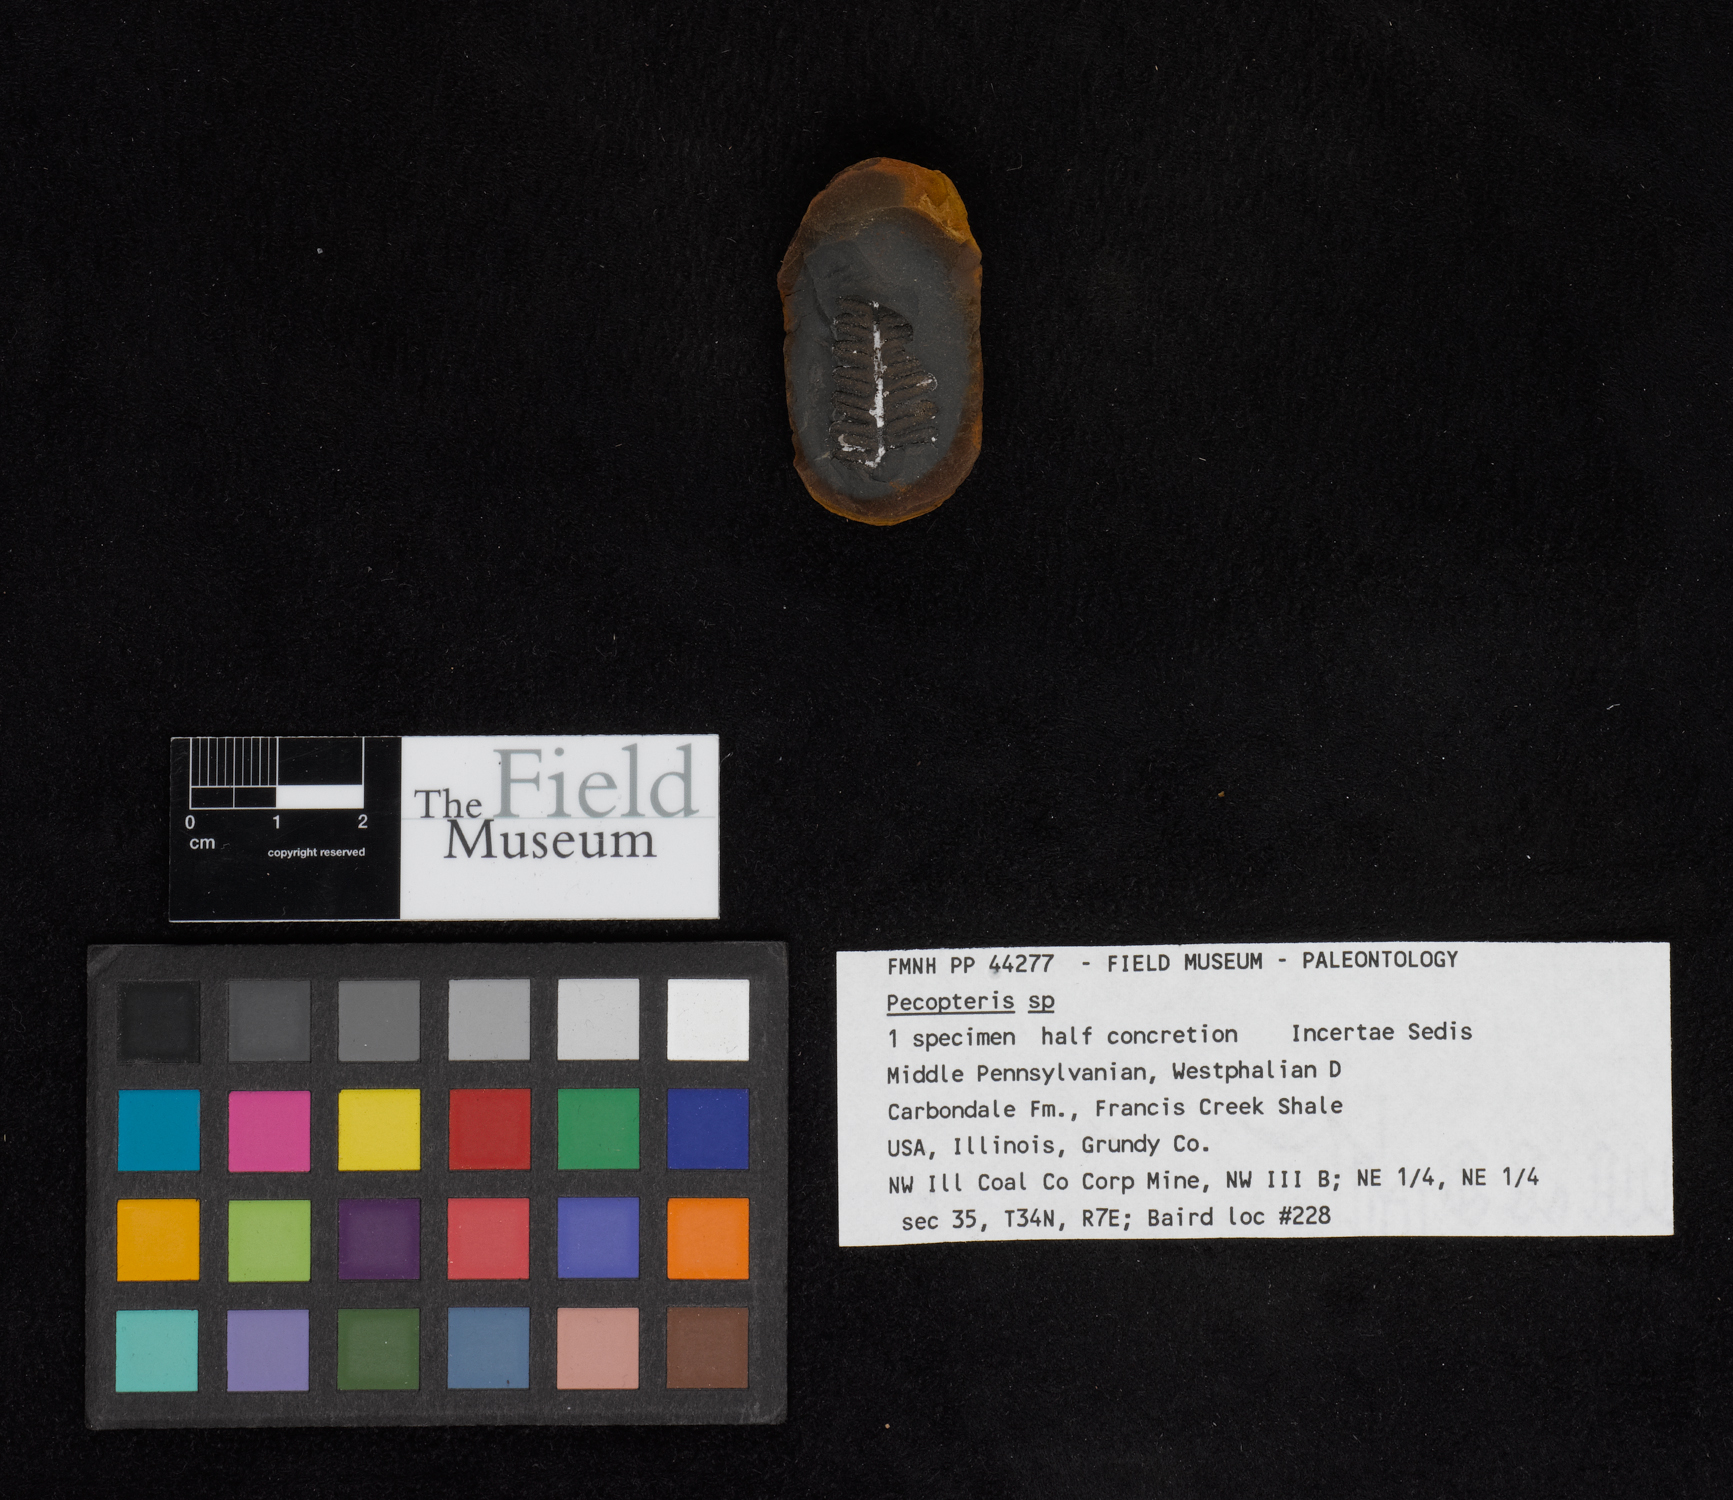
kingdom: Plantae
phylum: Tracheophyta
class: Polypodiopsida
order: Marattiales
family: Asterothecaceae
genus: Pecopteris
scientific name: Pecopteris
